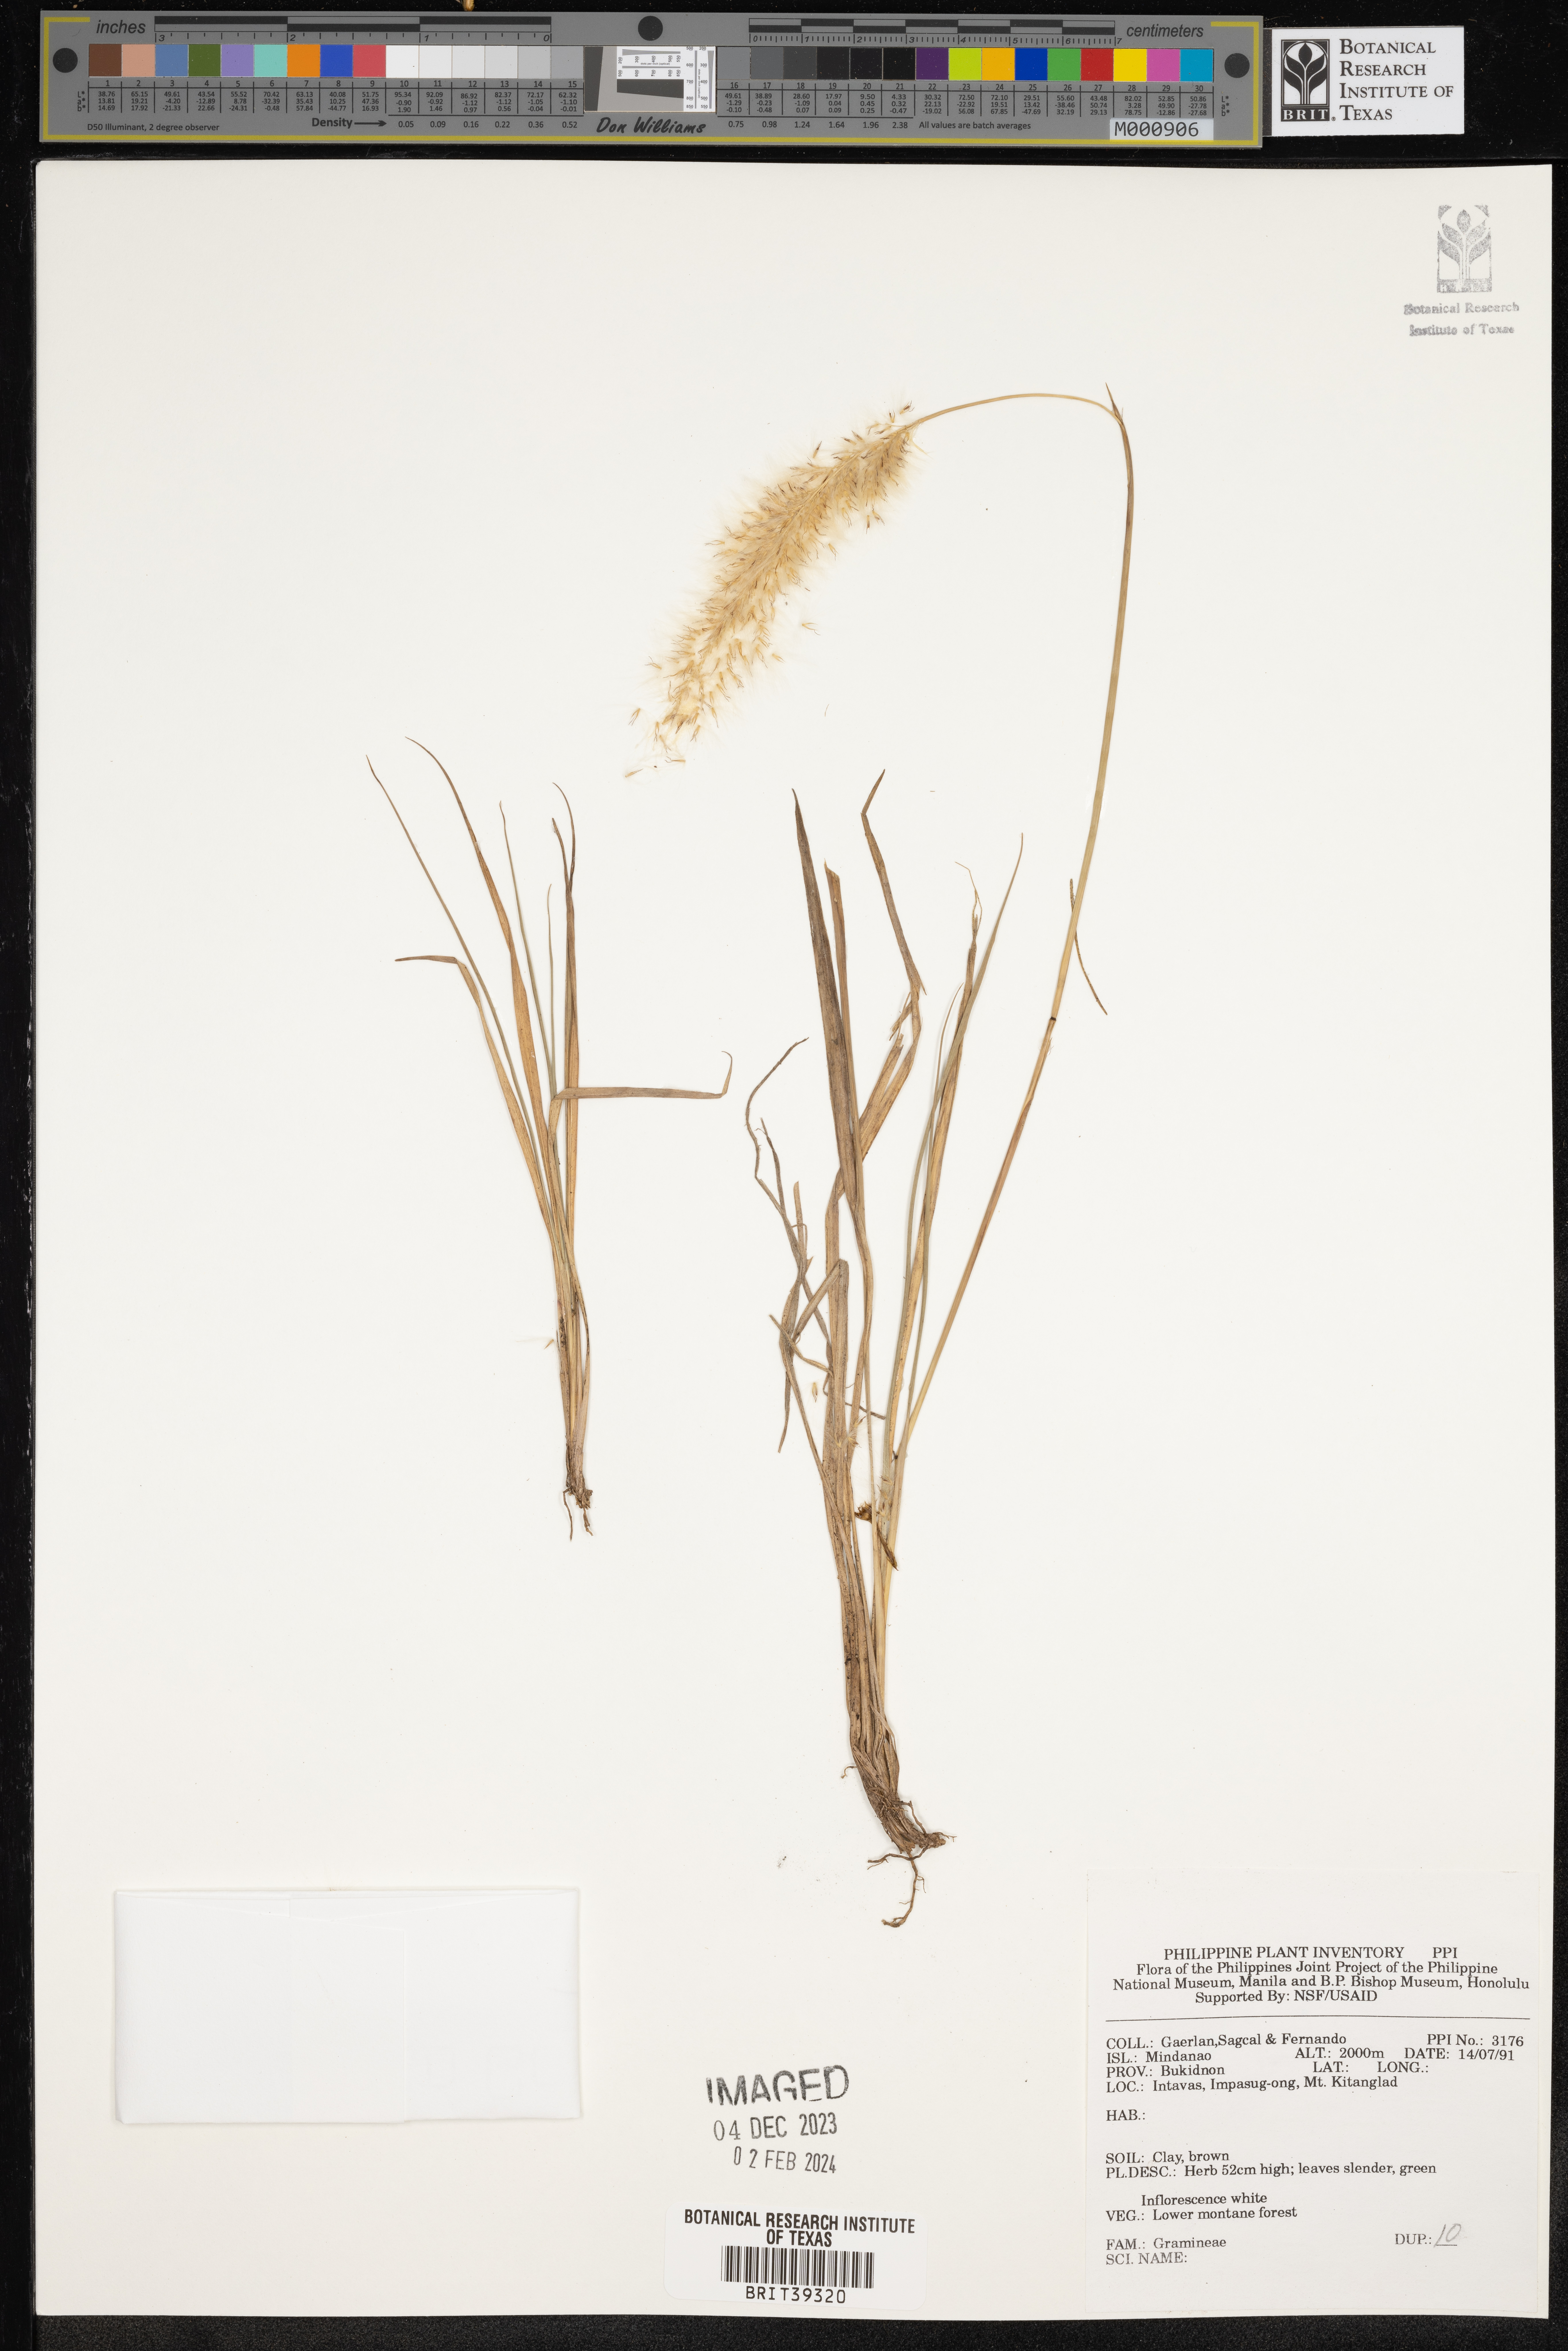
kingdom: Plantae
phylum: Tracheophyta
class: Liliopsida
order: Poales
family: Poaceae
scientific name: Poaceae
